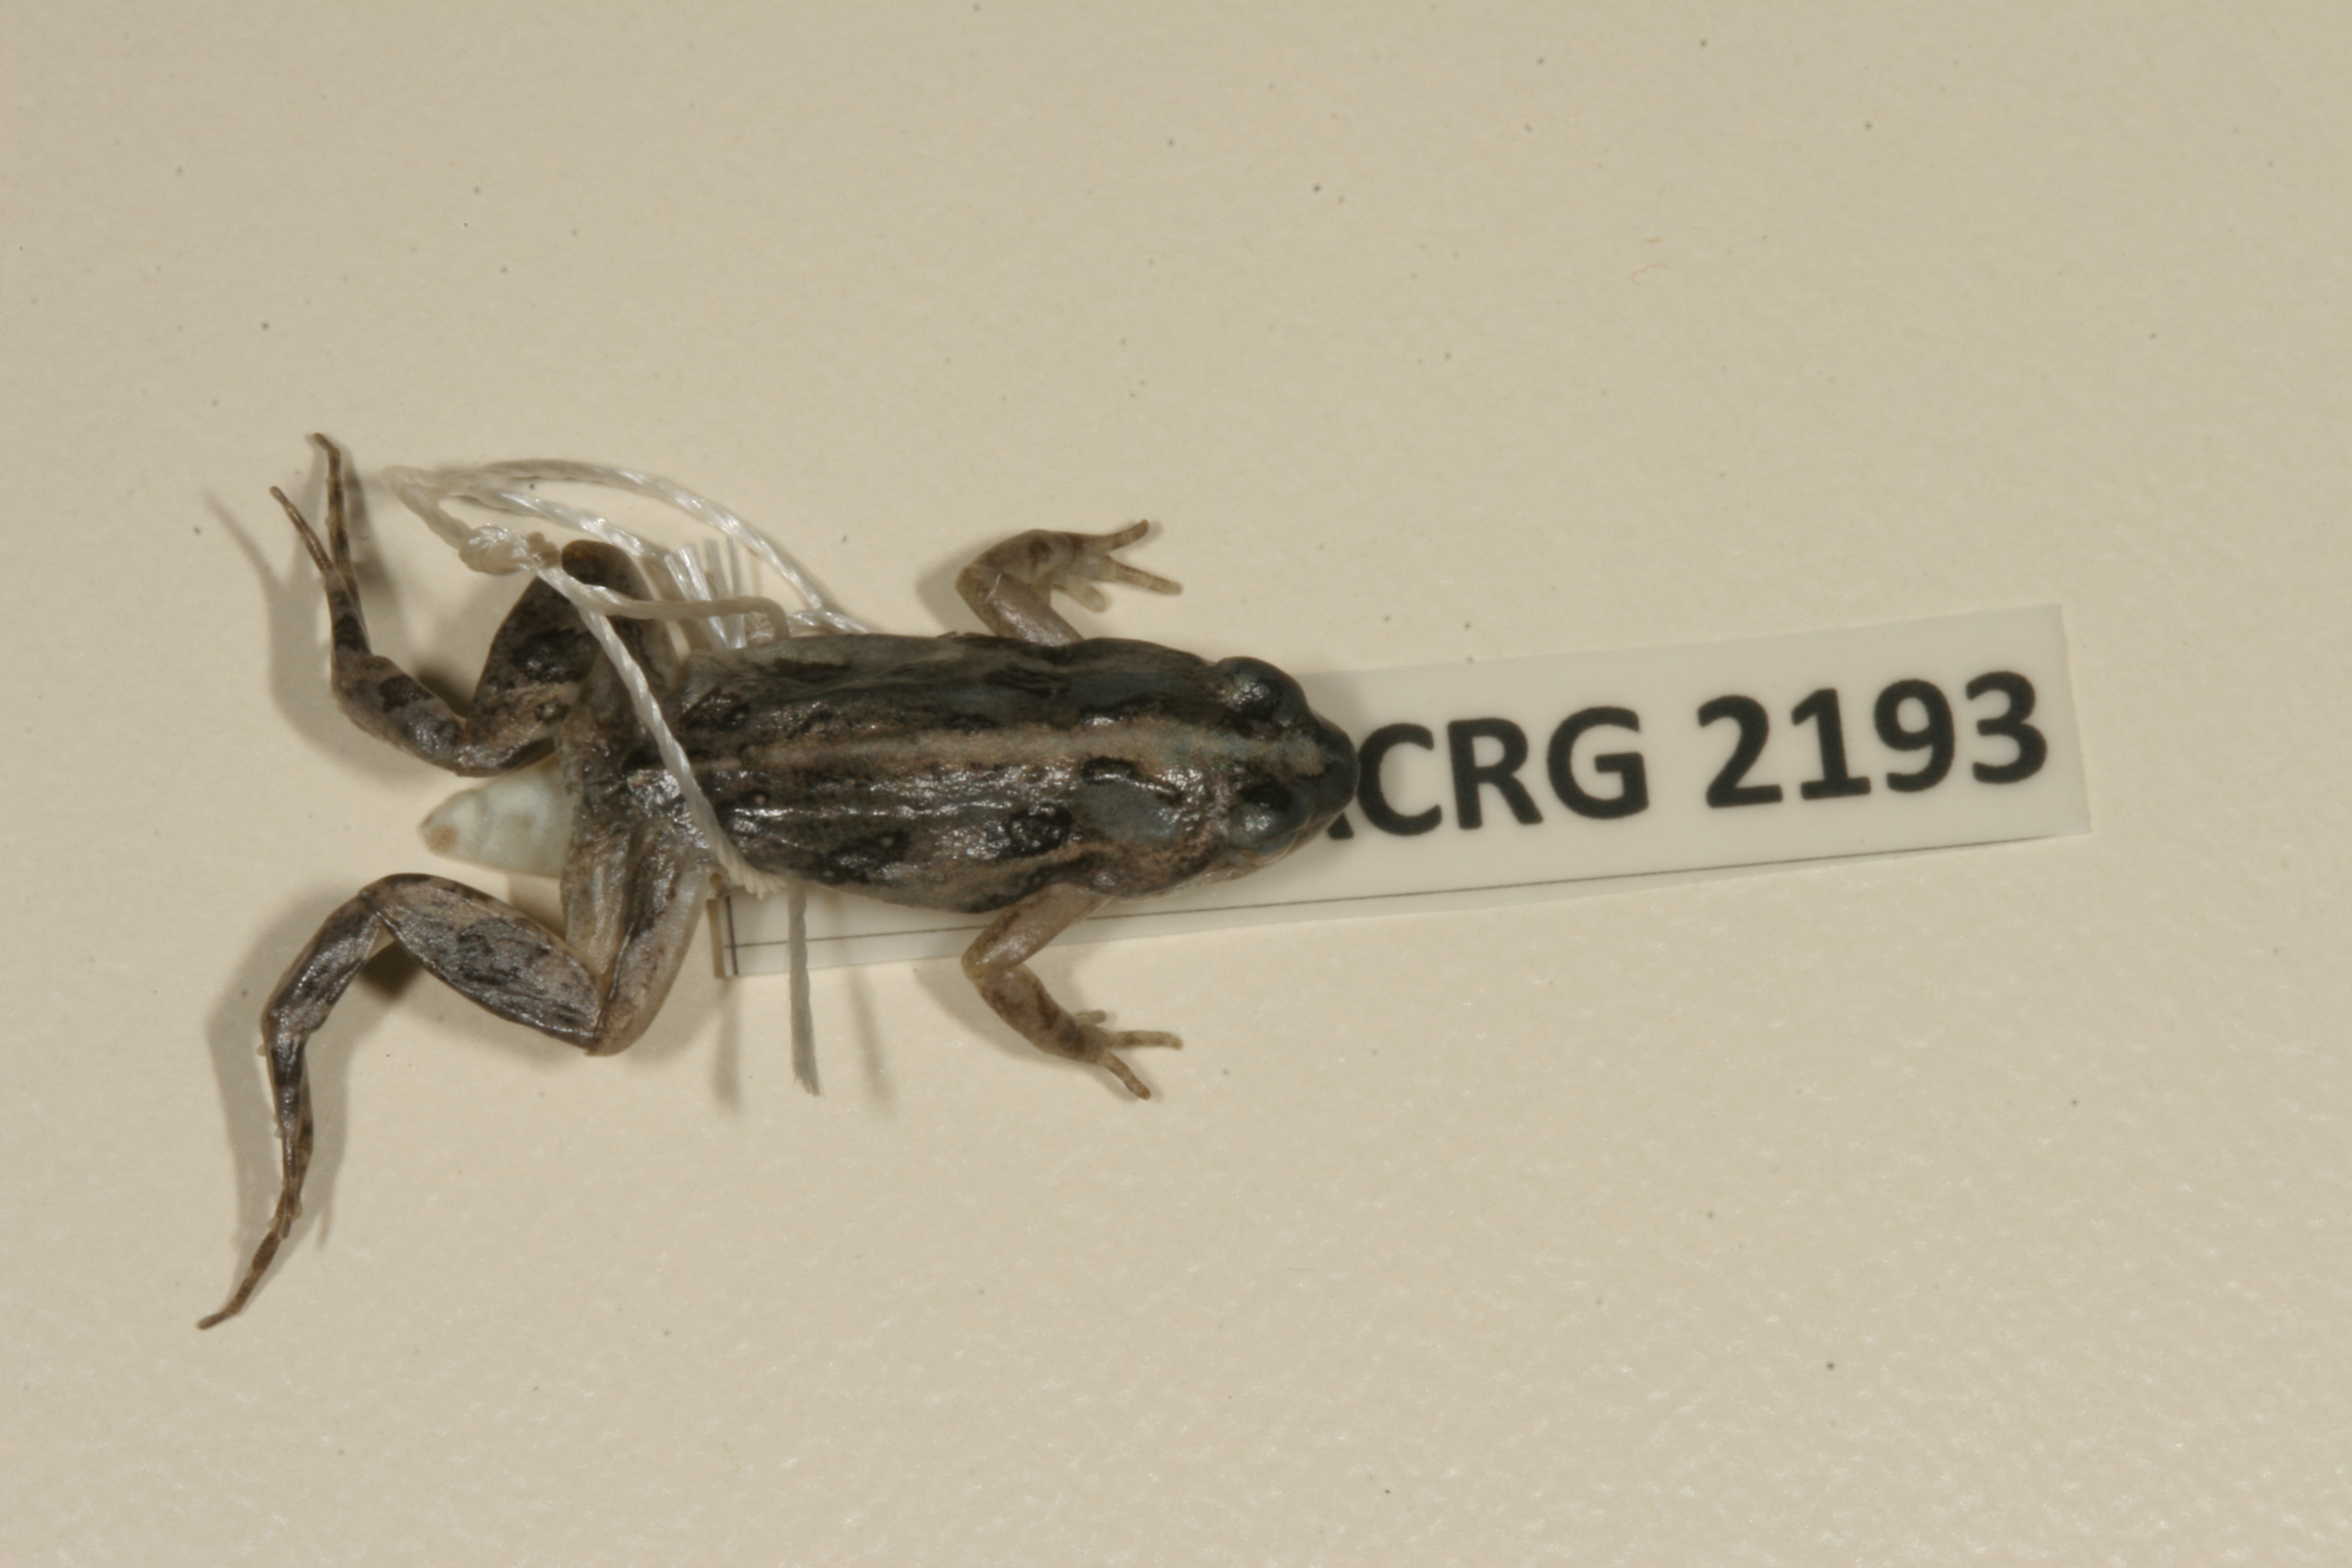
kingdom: Animalia
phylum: Chordata
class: Amphibia
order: Anura
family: Pyxicephalidae
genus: Cacosternum
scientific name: Cacosternum boettgeri
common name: Boettger's frog
